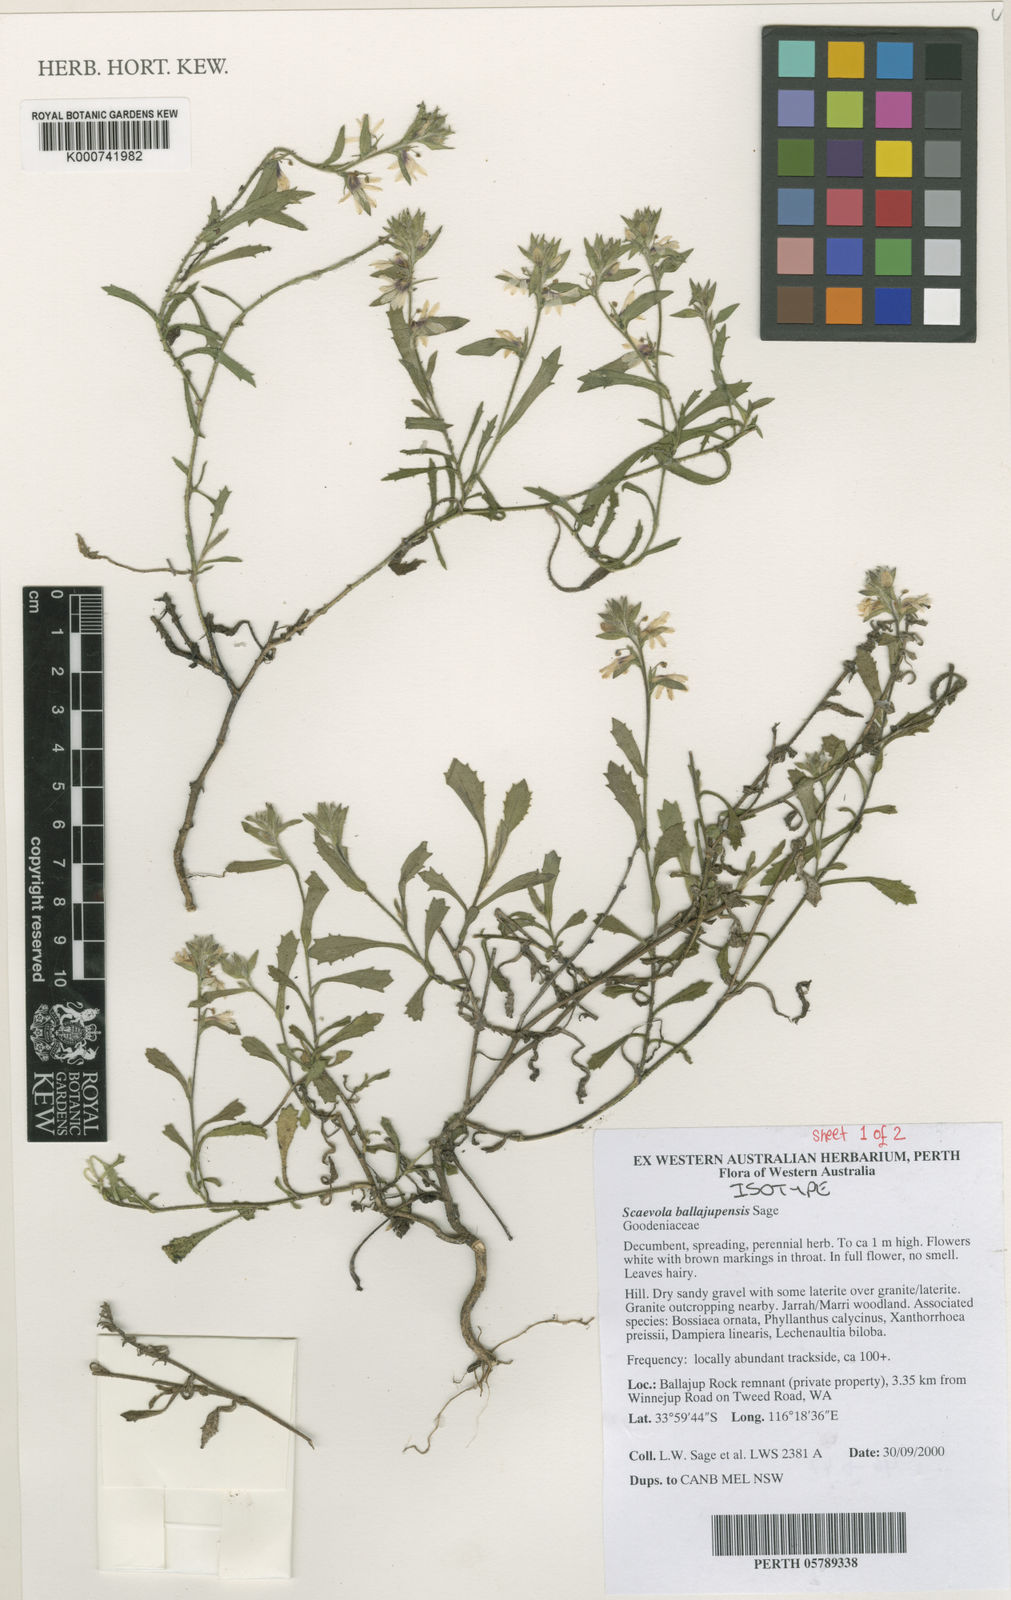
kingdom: Plantae
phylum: Tracheophyta
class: Magnoliopsida
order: Asterales
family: Goodeniaceae
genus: Scaevola
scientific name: Scaevola ballajupensis
